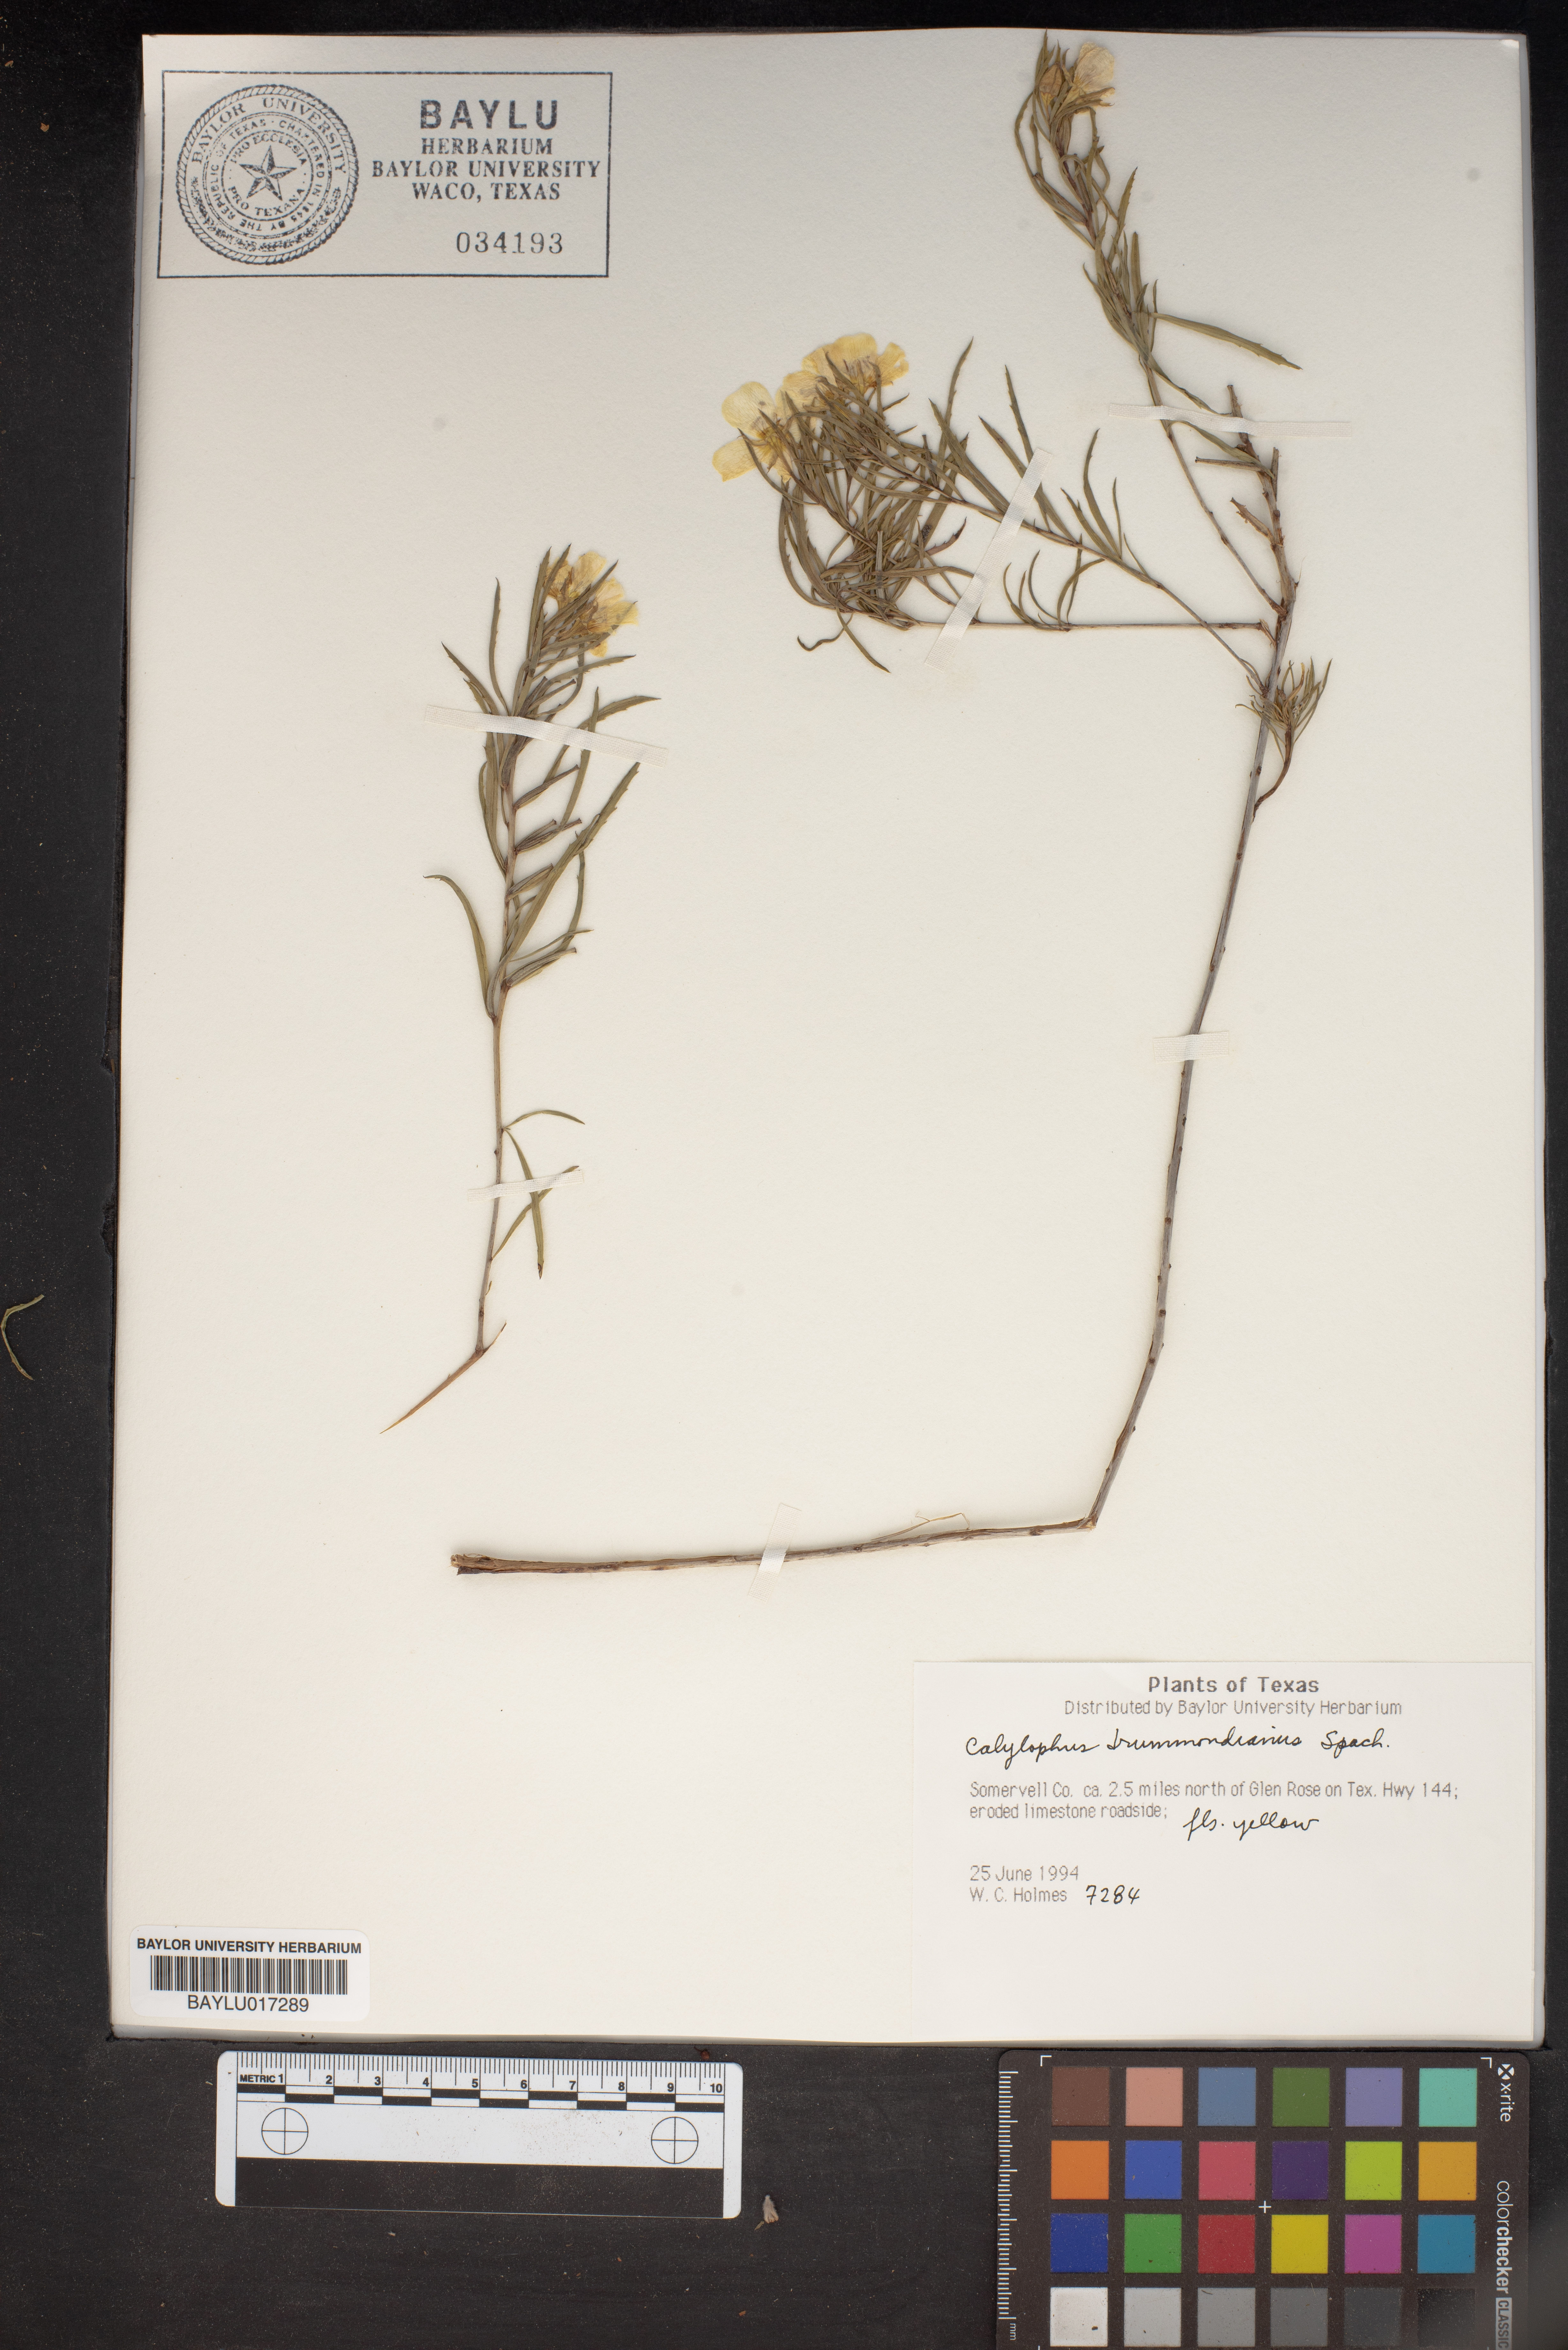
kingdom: Plantae
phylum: Tracheophyta
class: Magnoliopsida
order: Myrtales
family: Onagraceae
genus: Oenothera
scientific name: Oenothera serrulata
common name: Half-shrub calylophus
